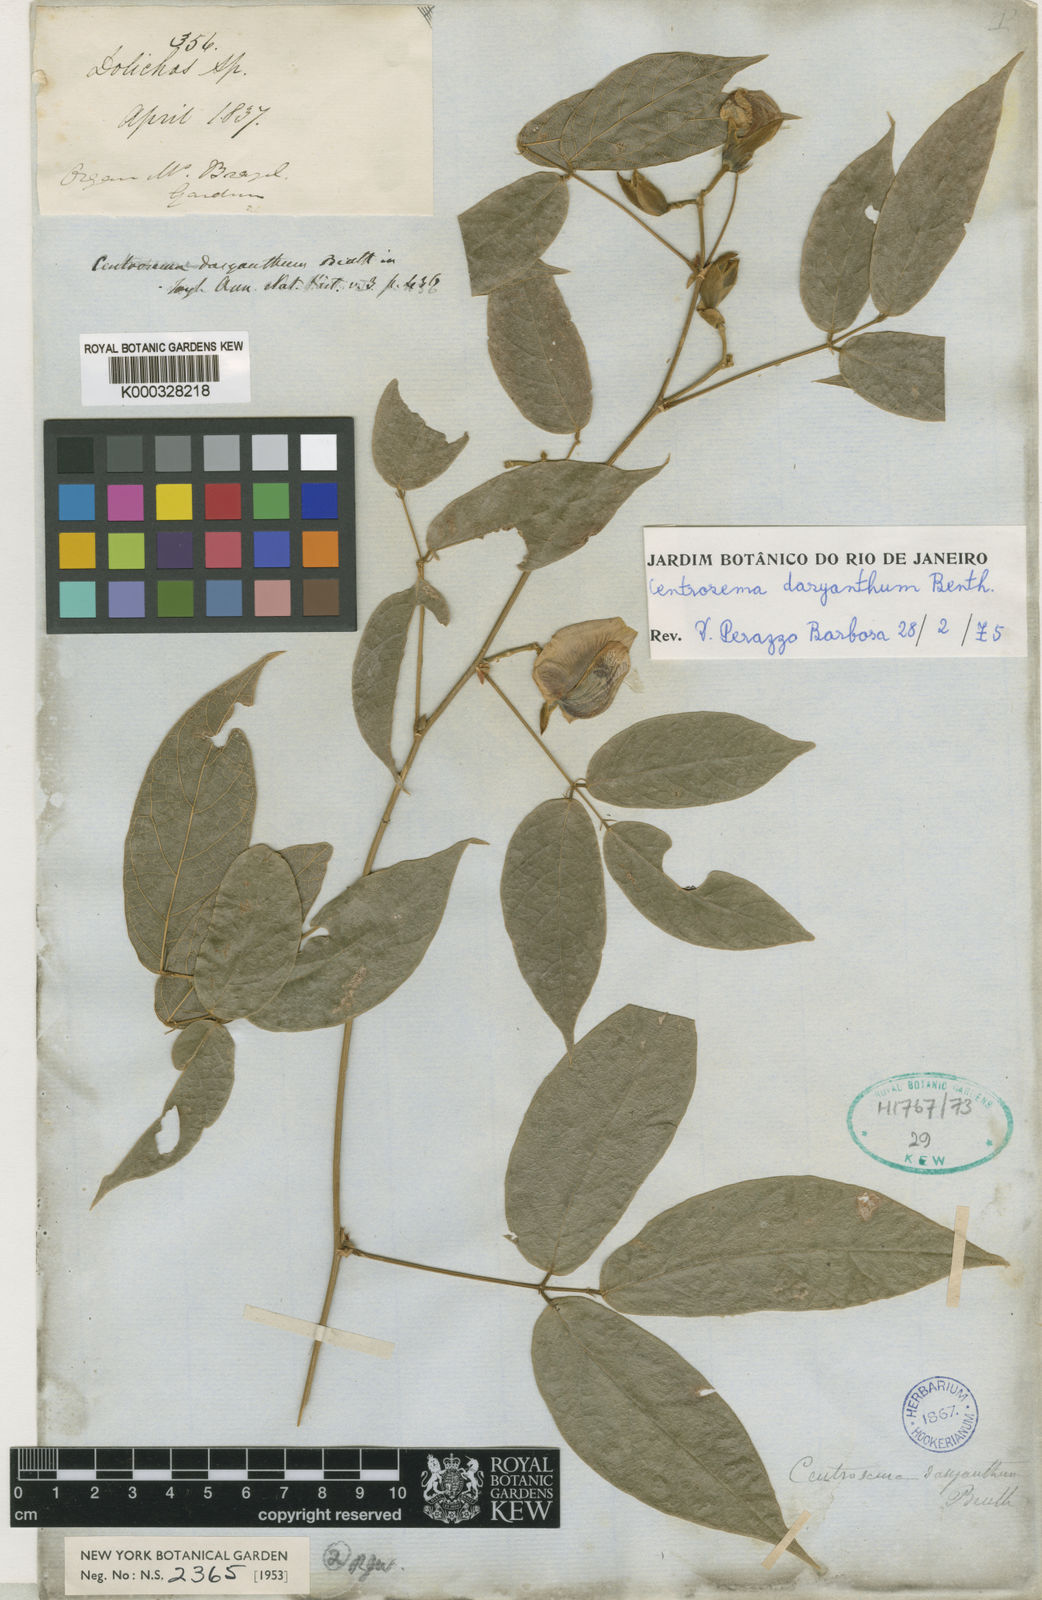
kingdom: Plantae
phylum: Tracheophyta
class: Magnoliopsida
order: Fabales
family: Fabaceae
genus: Centrosema
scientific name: Centrosema dasyanthum
